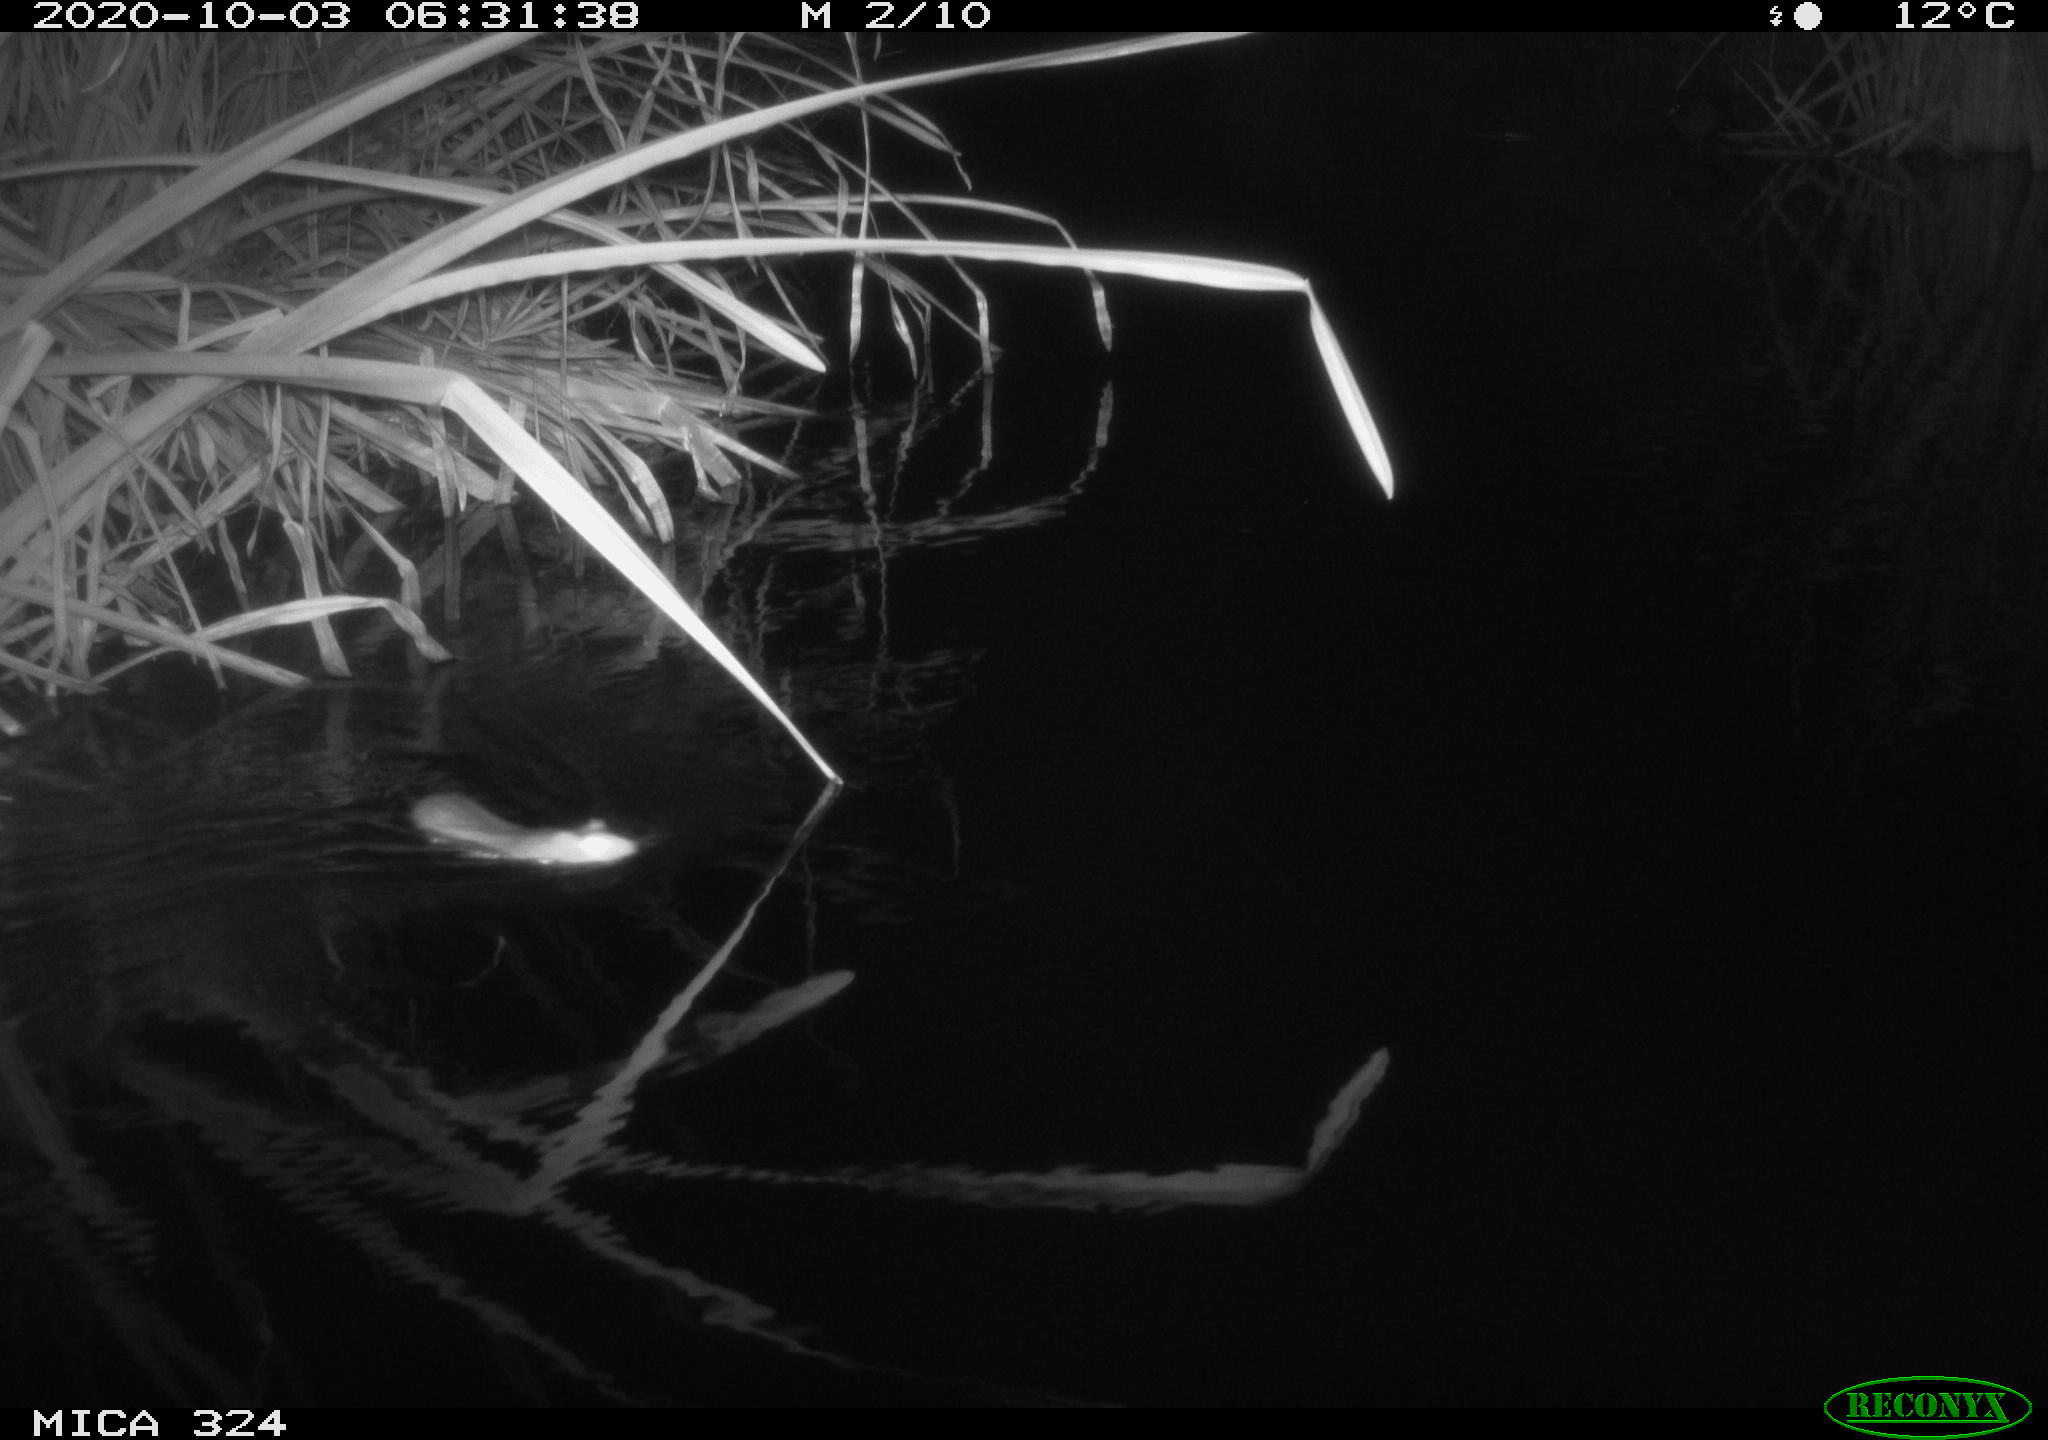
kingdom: Animalia
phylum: Chordata
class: Mammalia
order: Rodentia
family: Muridae
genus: Rattus
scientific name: Rattus norvegicus
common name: Brown rat
